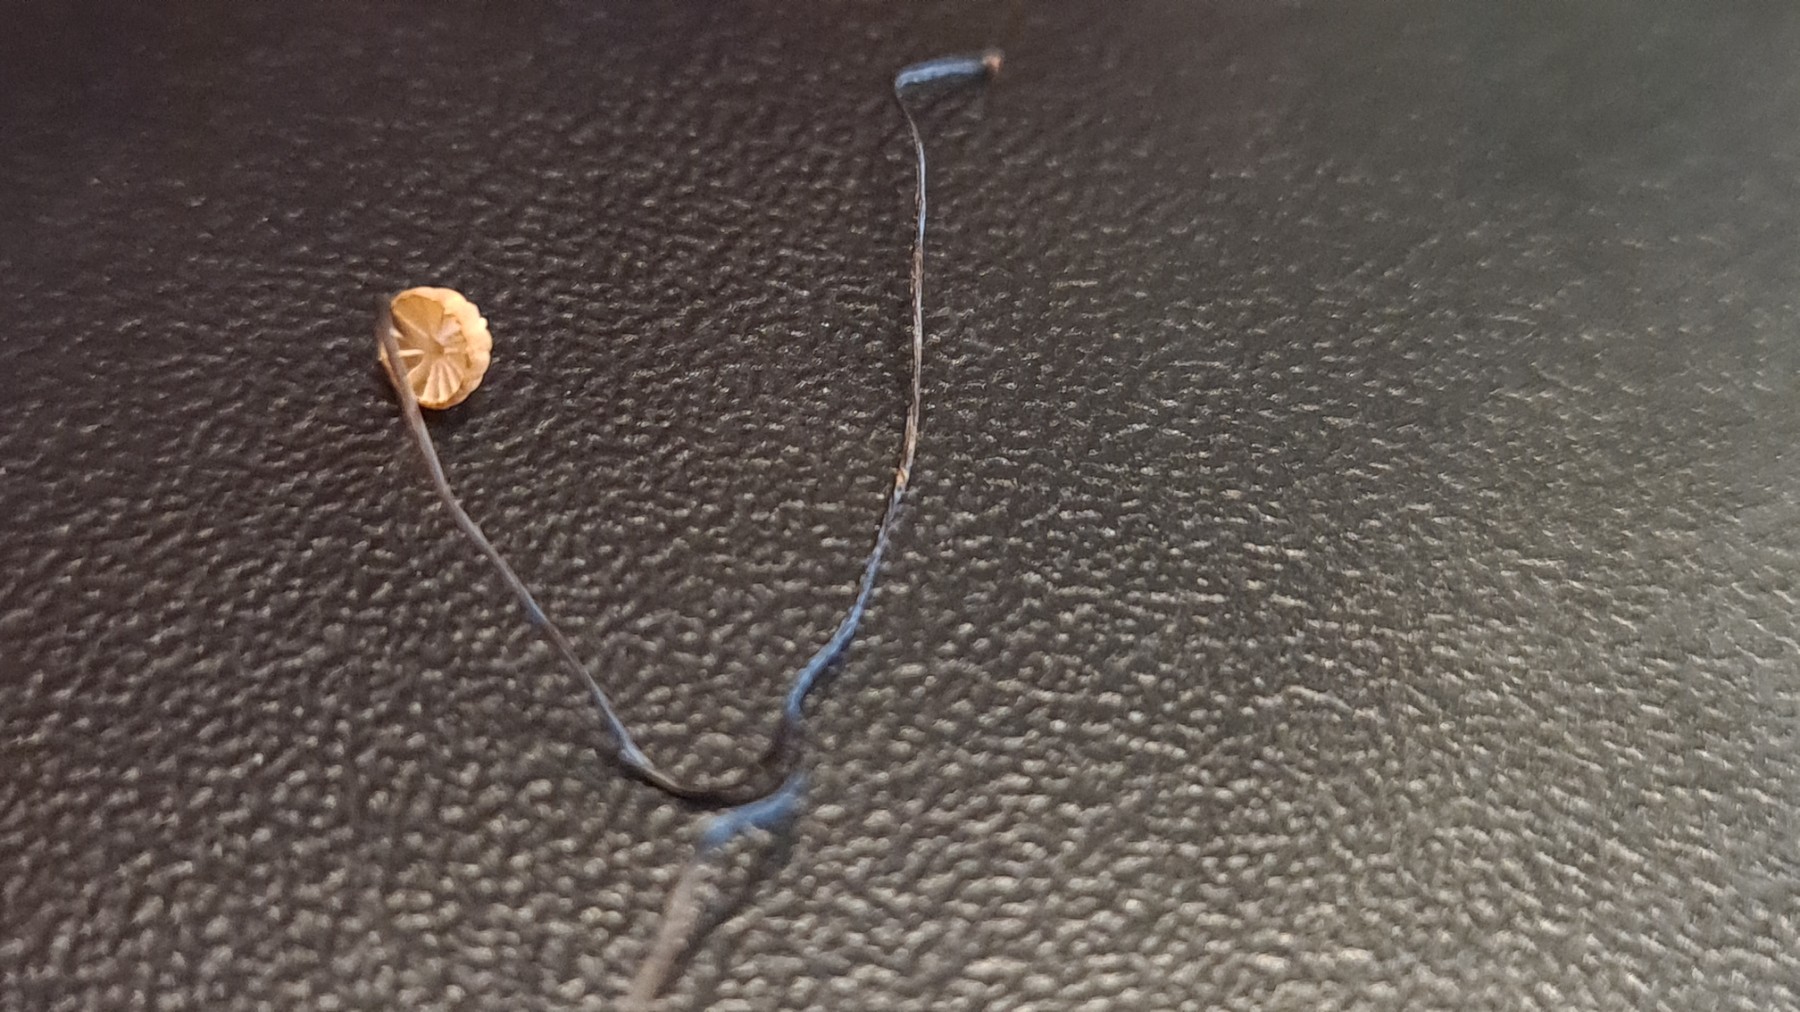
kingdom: Fungi
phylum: Basidiomycota
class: Agaricomycetes
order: Agaricales
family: Marasmiaceae
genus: Marasmius
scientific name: Marasmius bulliardii
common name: furet bruskhat
